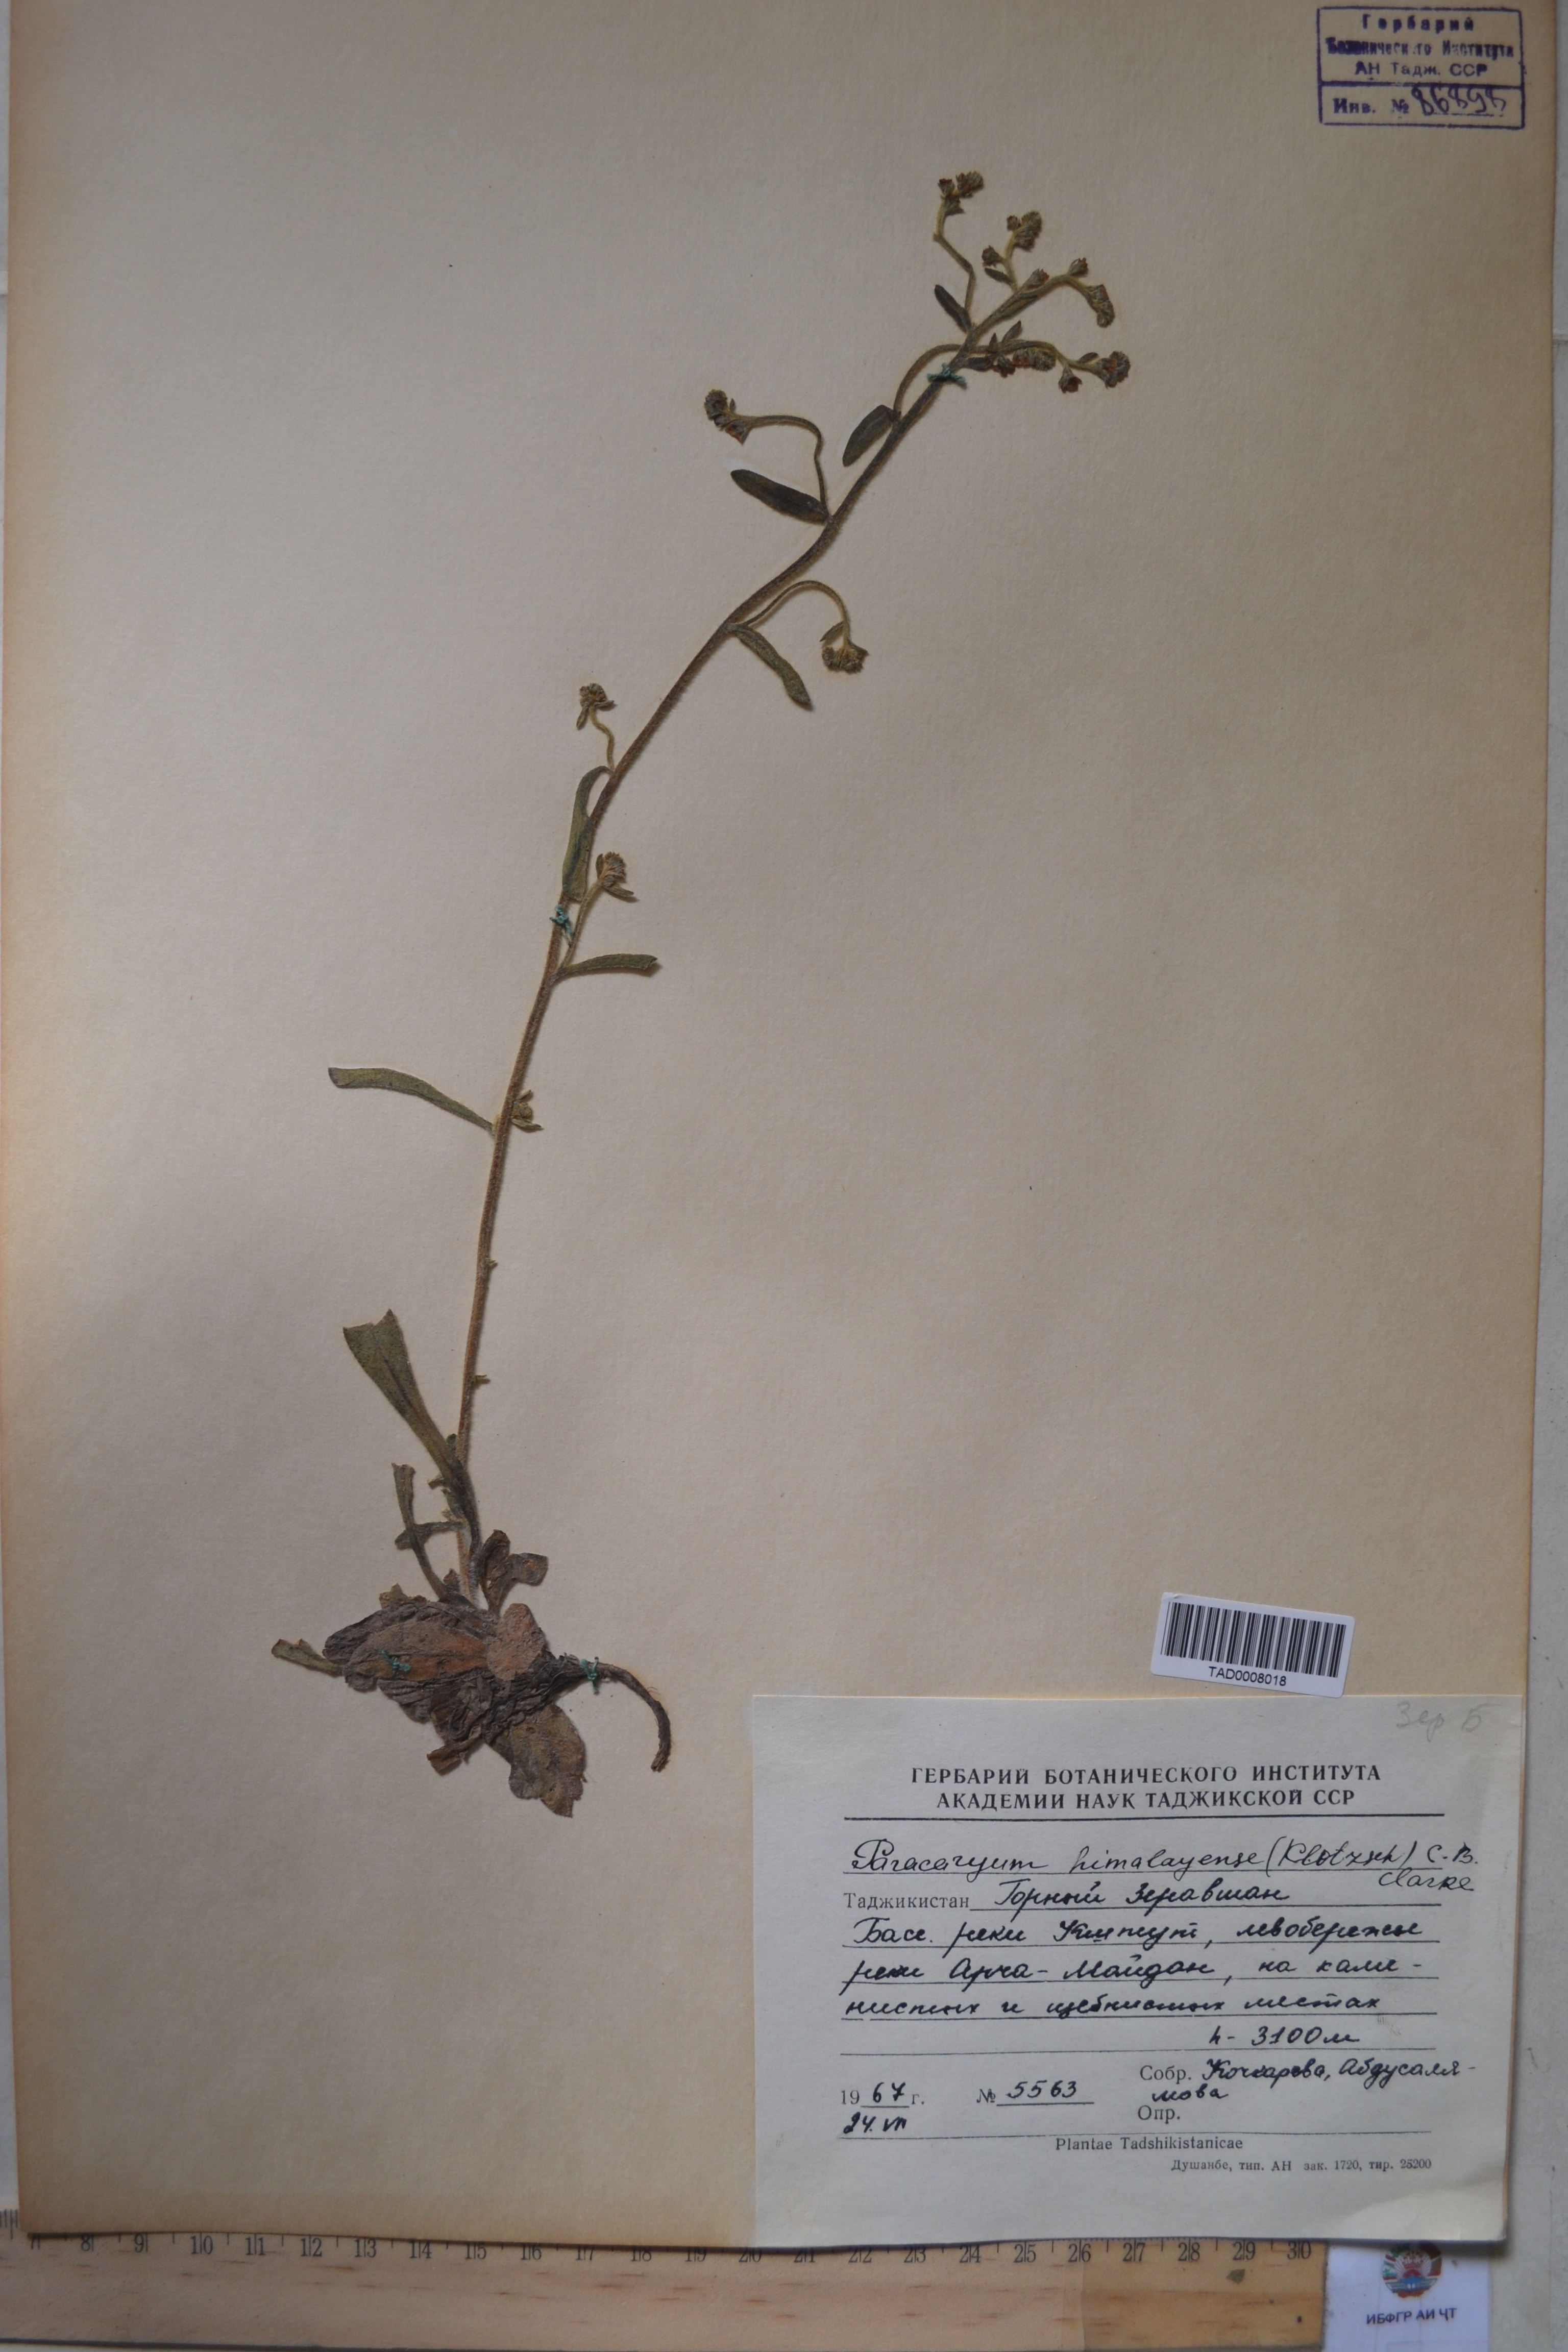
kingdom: Plantae
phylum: Tracheophyta
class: Magnoliopsida
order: Boraginales
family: Boraginaceae
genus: Paracaryum
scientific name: Paracaryum himalayense
